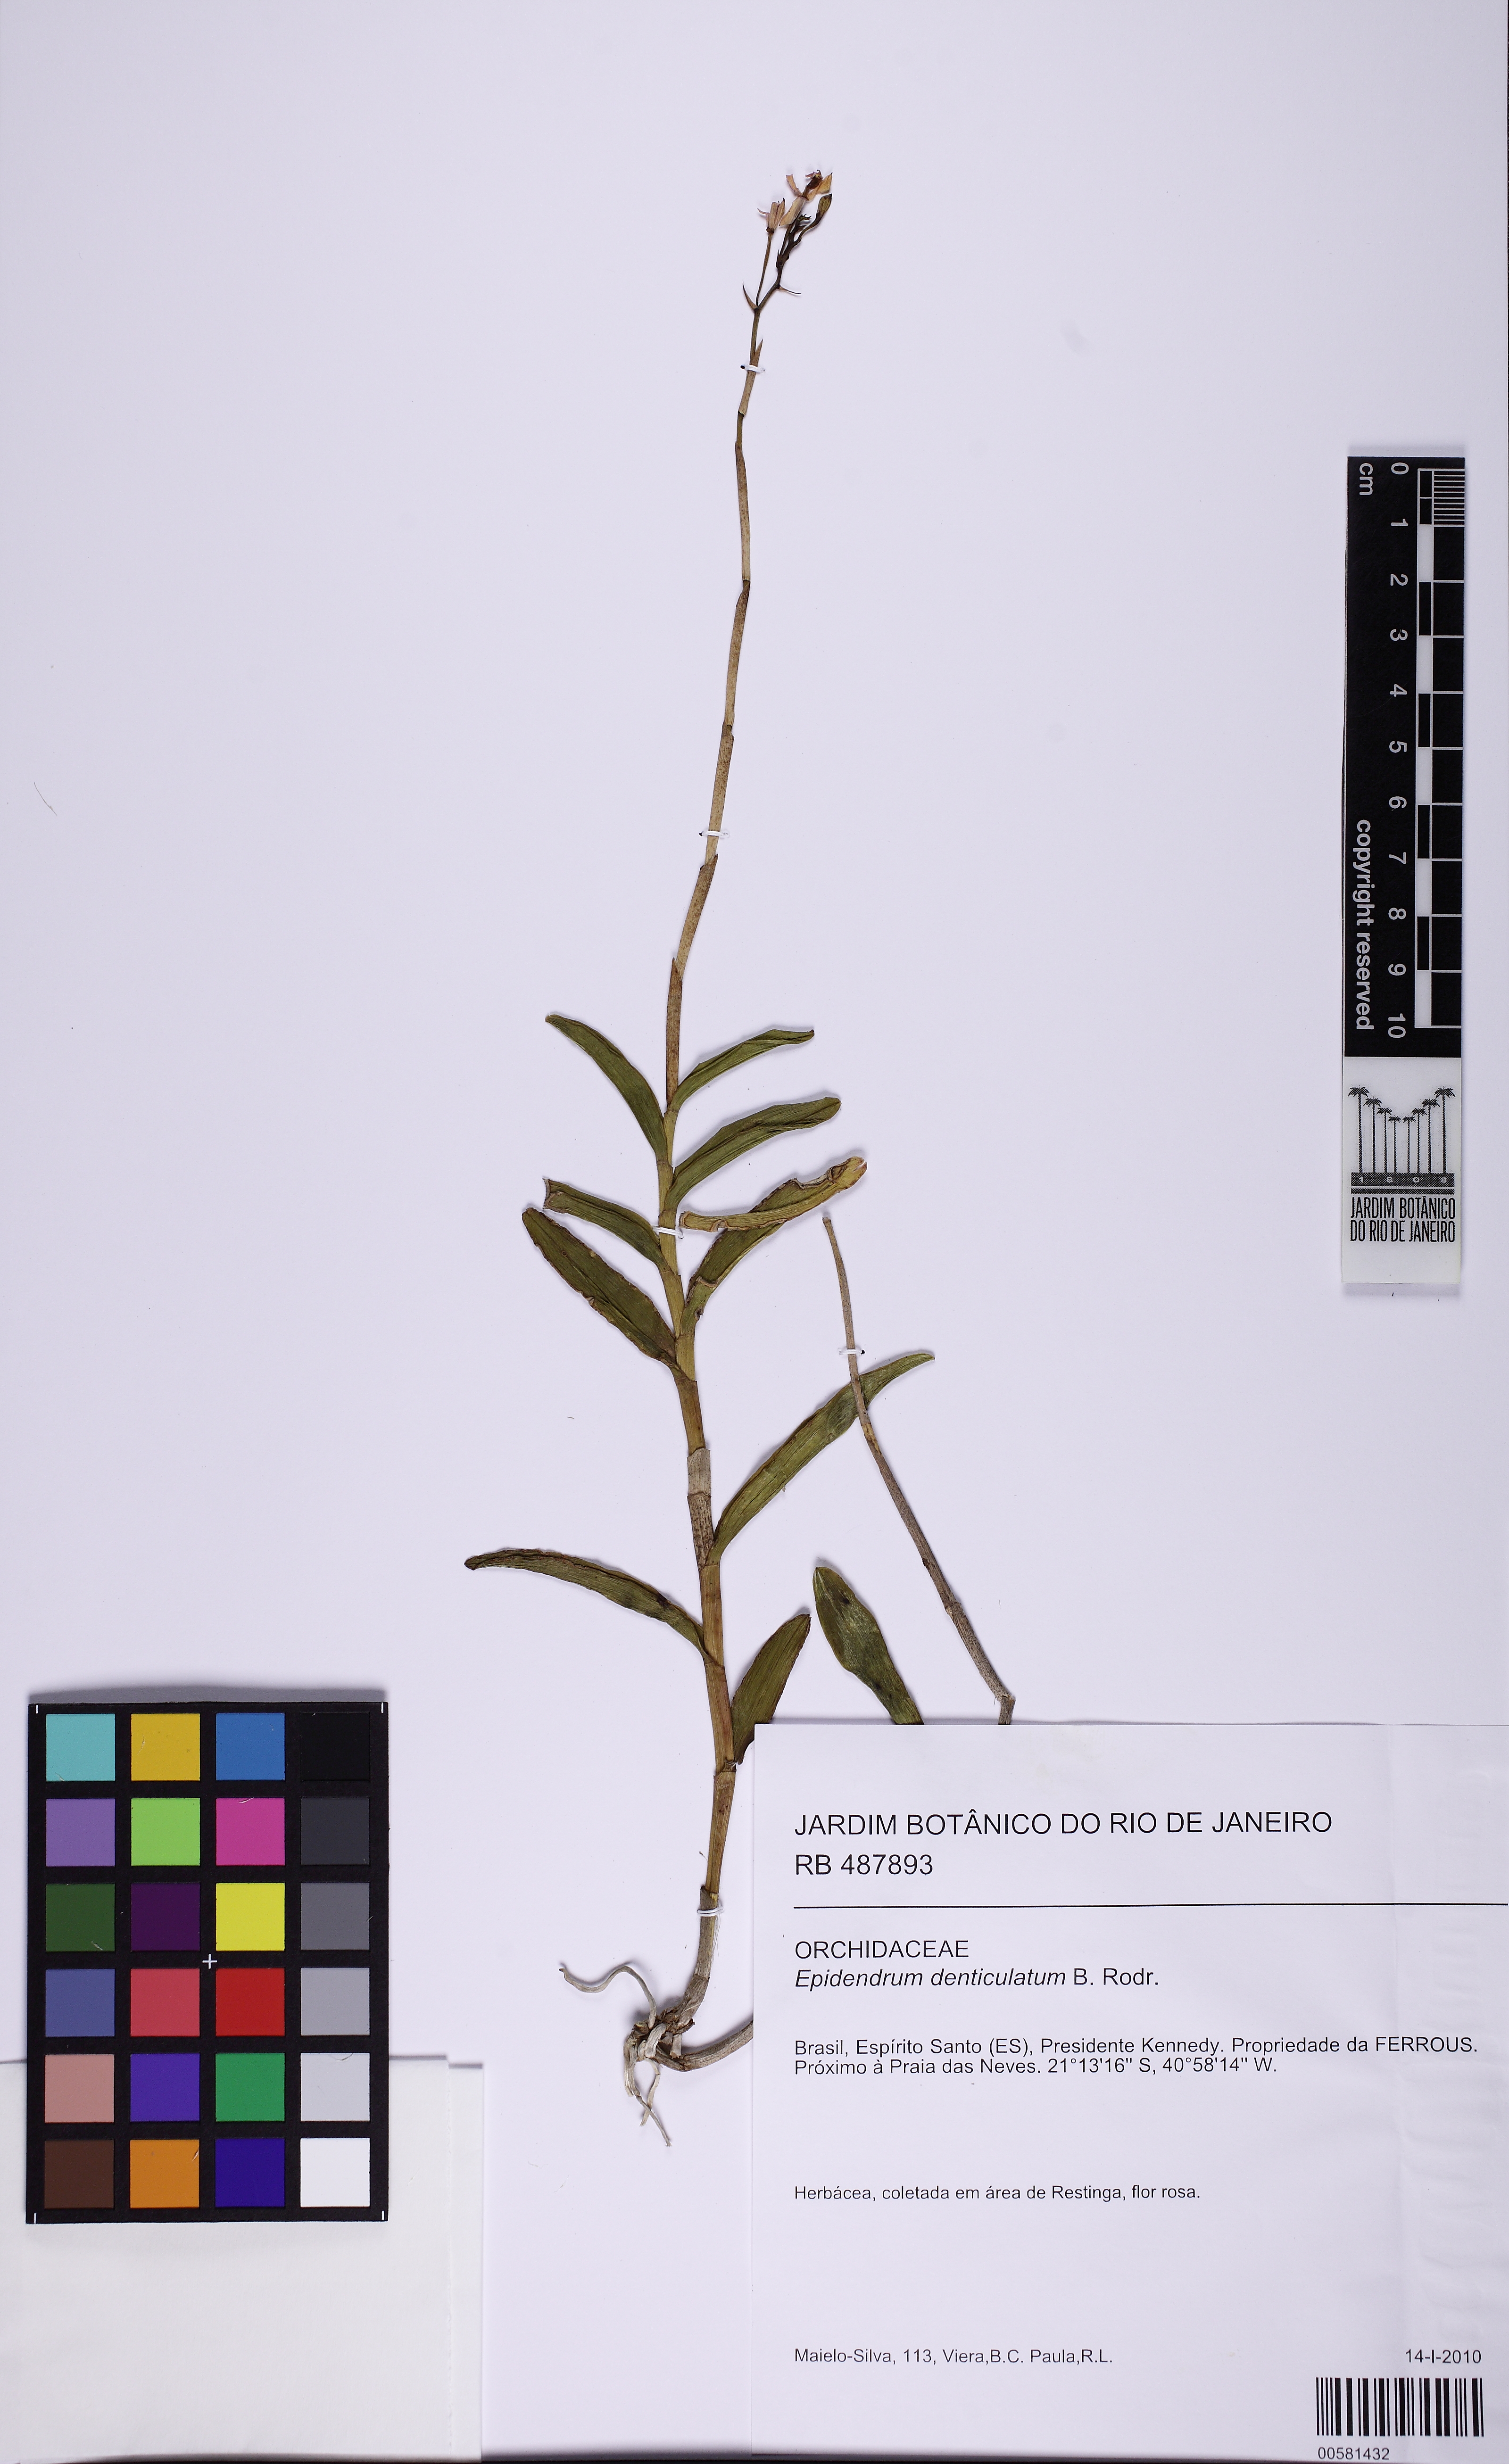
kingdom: Plantae
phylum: Tracheophyta
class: Liliopsida
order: Asparagales
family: Orchidaceae
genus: Epidendrum
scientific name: Epidendrum denticulatum
